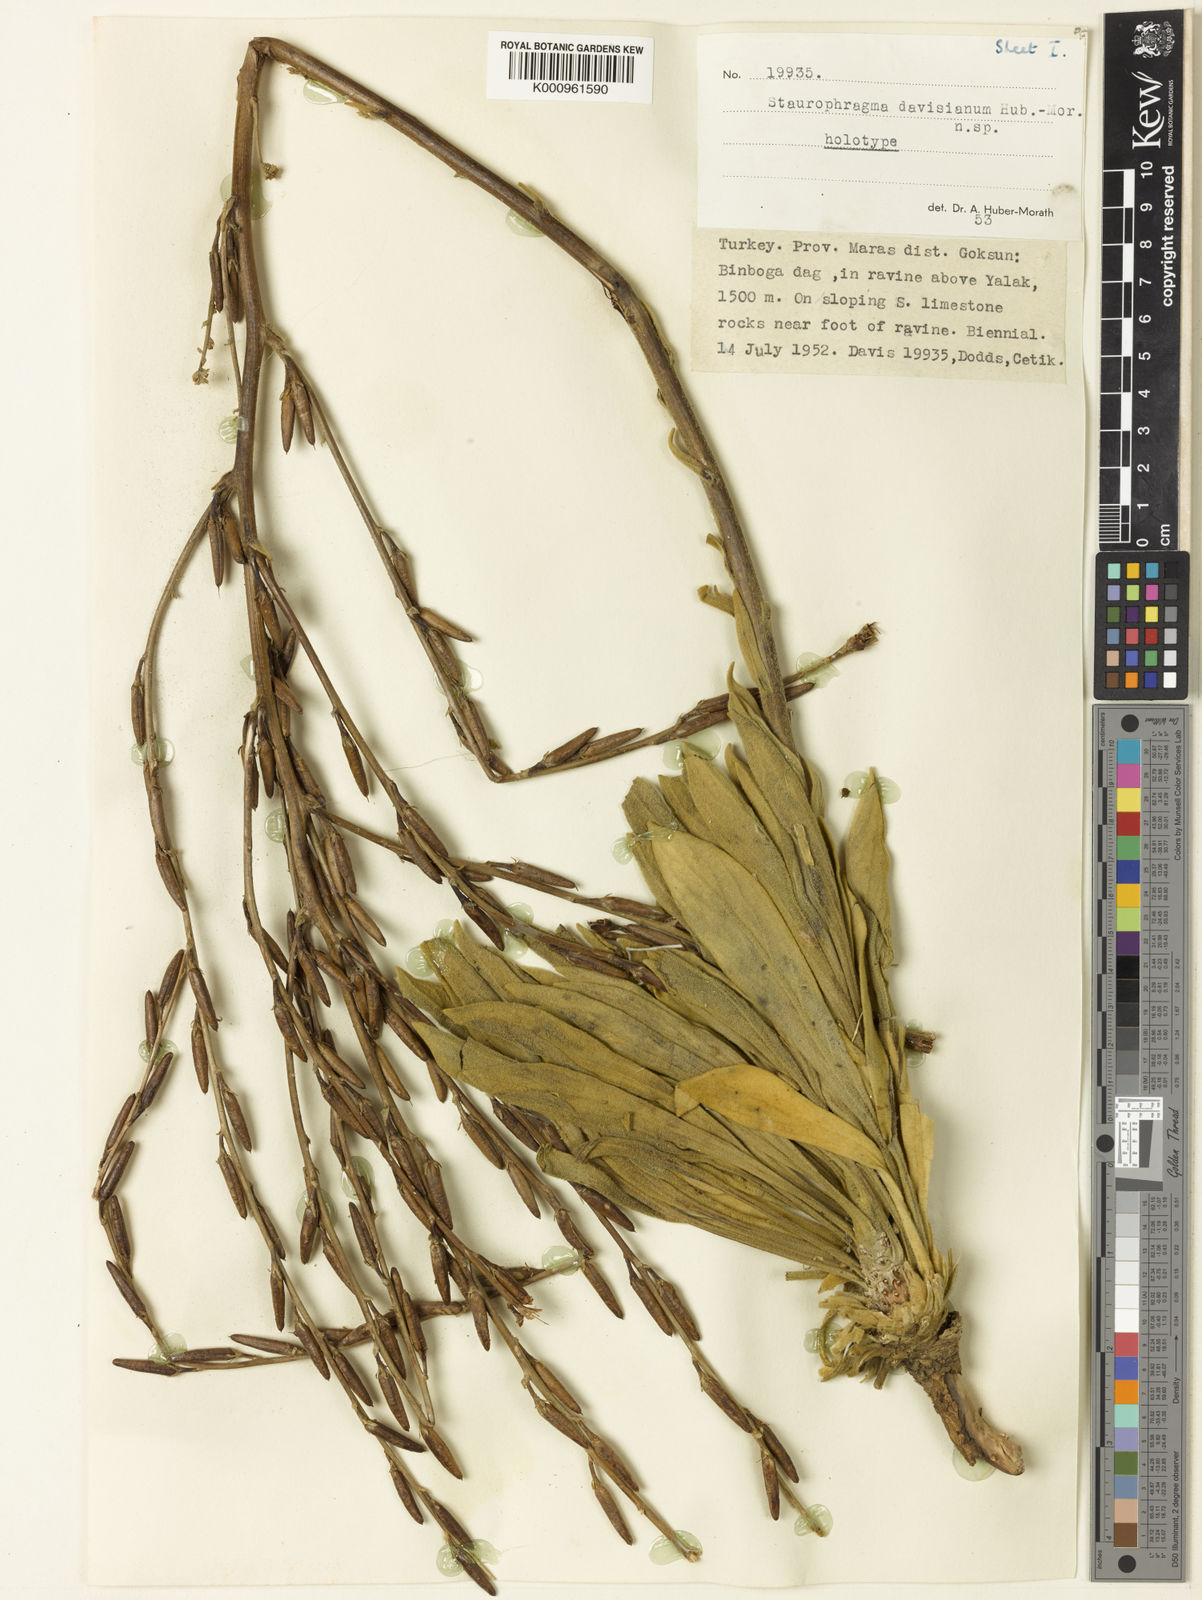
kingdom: Plantae
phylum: Tracheophyta
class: Magnoliopsida
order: Lamiales
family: Scrophulariaceae
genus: Verbascum
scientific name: Verbascum
